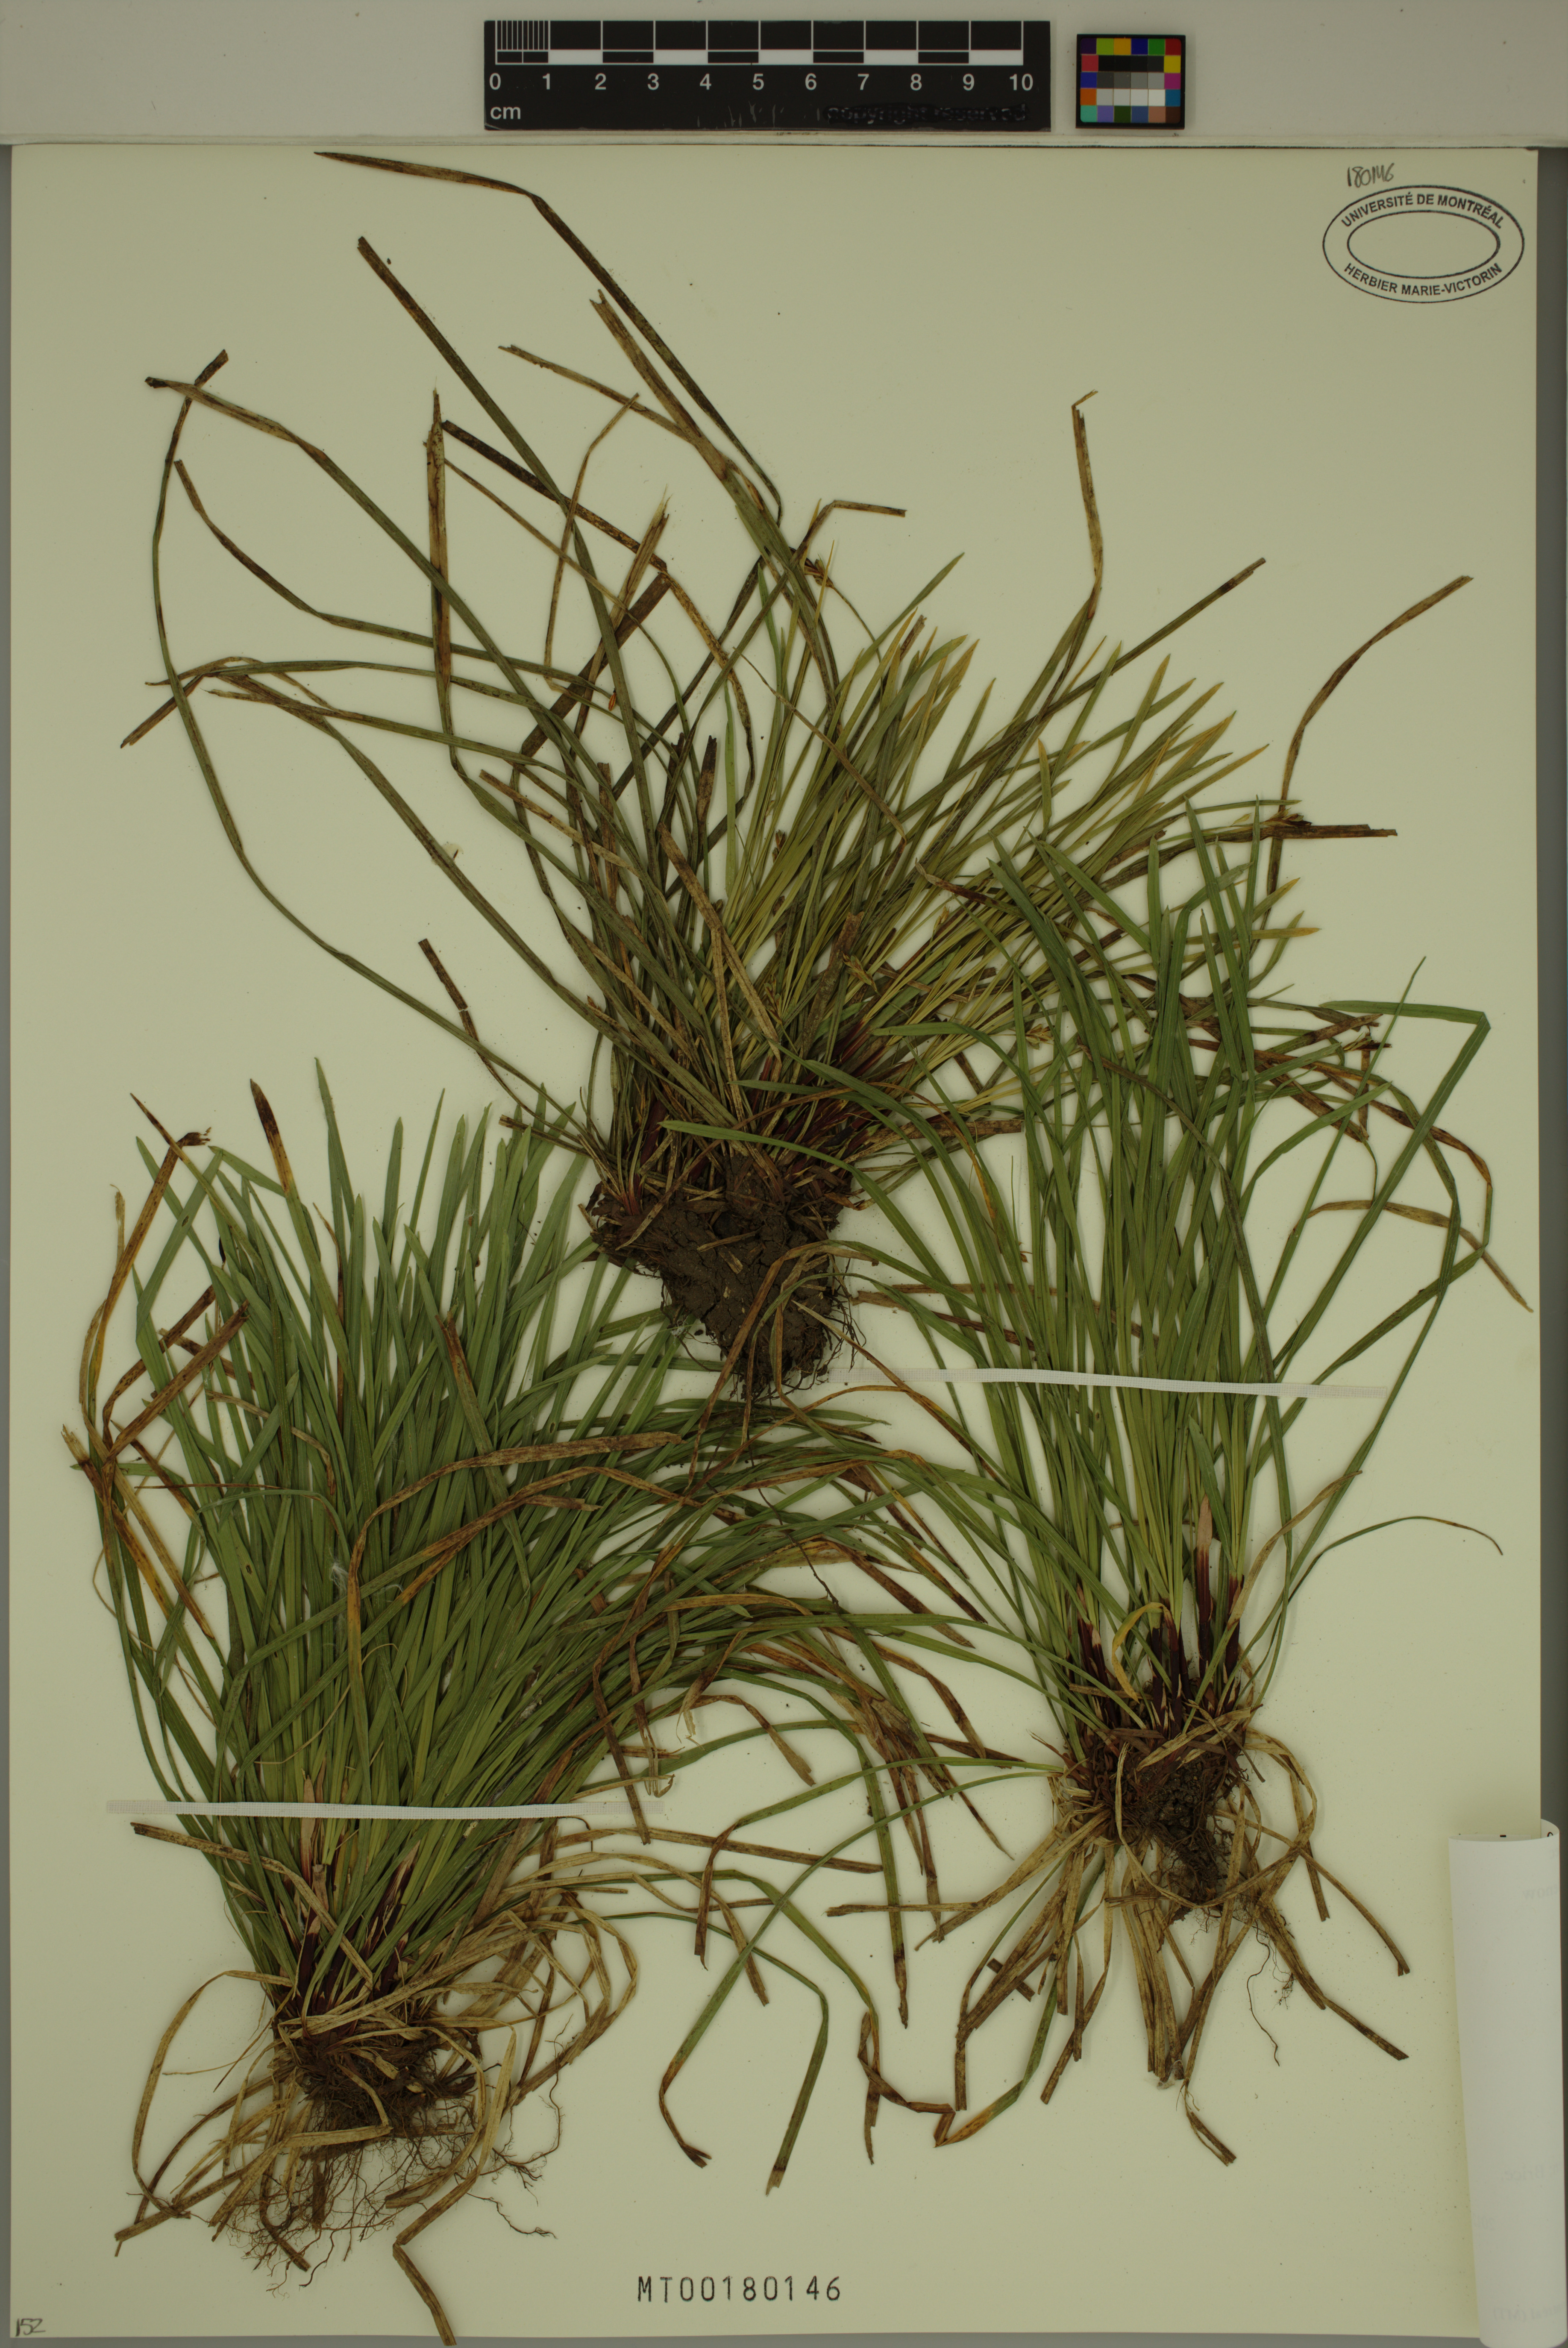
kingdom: Plantae
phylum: Tracheophyta
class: Liliopsida
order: Poales
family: Cyperaceae
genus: Carex
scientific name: Carex pedunculata
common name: Pedunculate sedge
